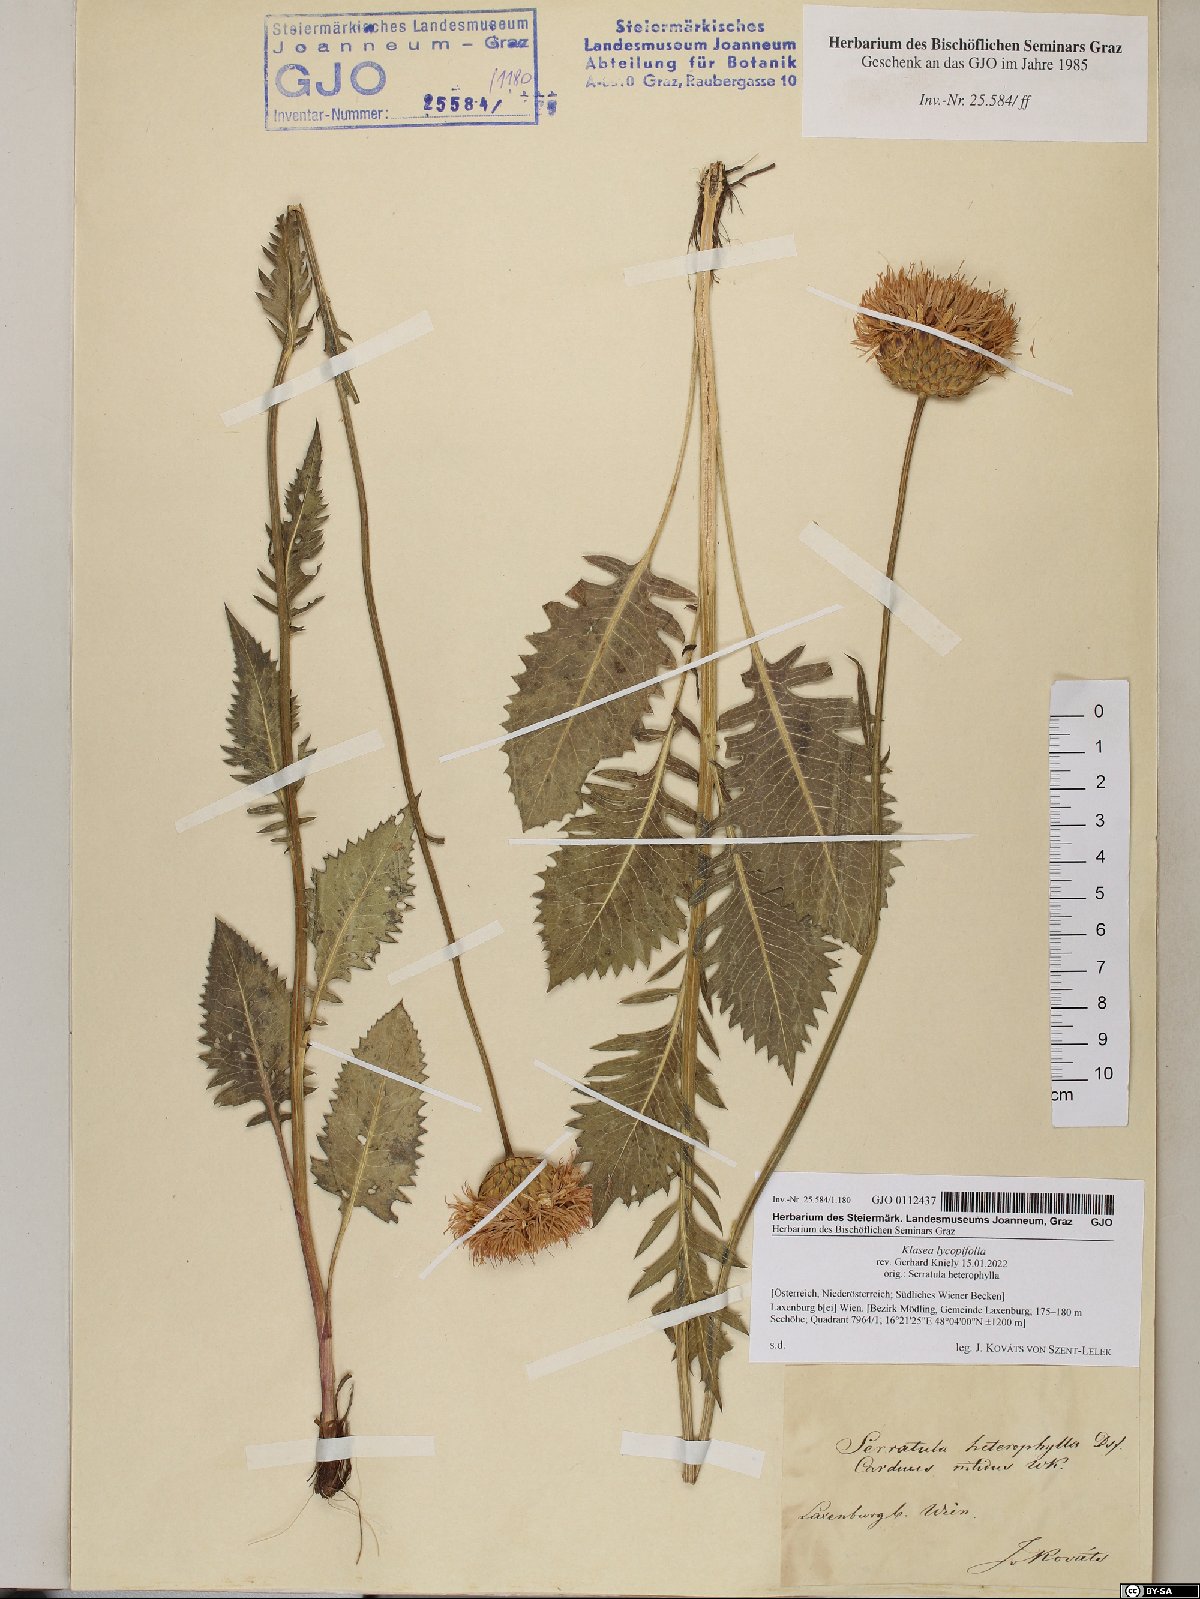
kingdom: Plantae
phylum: Tracheophyta
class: Magnoliopsida
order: Asterales
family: Asteraceae
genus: Klasea
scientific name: Klasea lycopifolia
